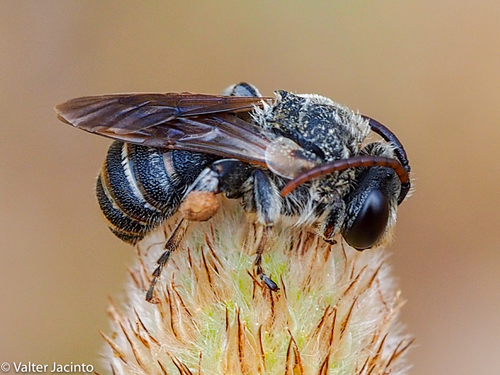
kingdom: Animalia
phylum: Arthropoda
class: Insecta
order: Hymenoptera
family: Halictidae
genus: Pseudapis
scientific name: Pseudapis
